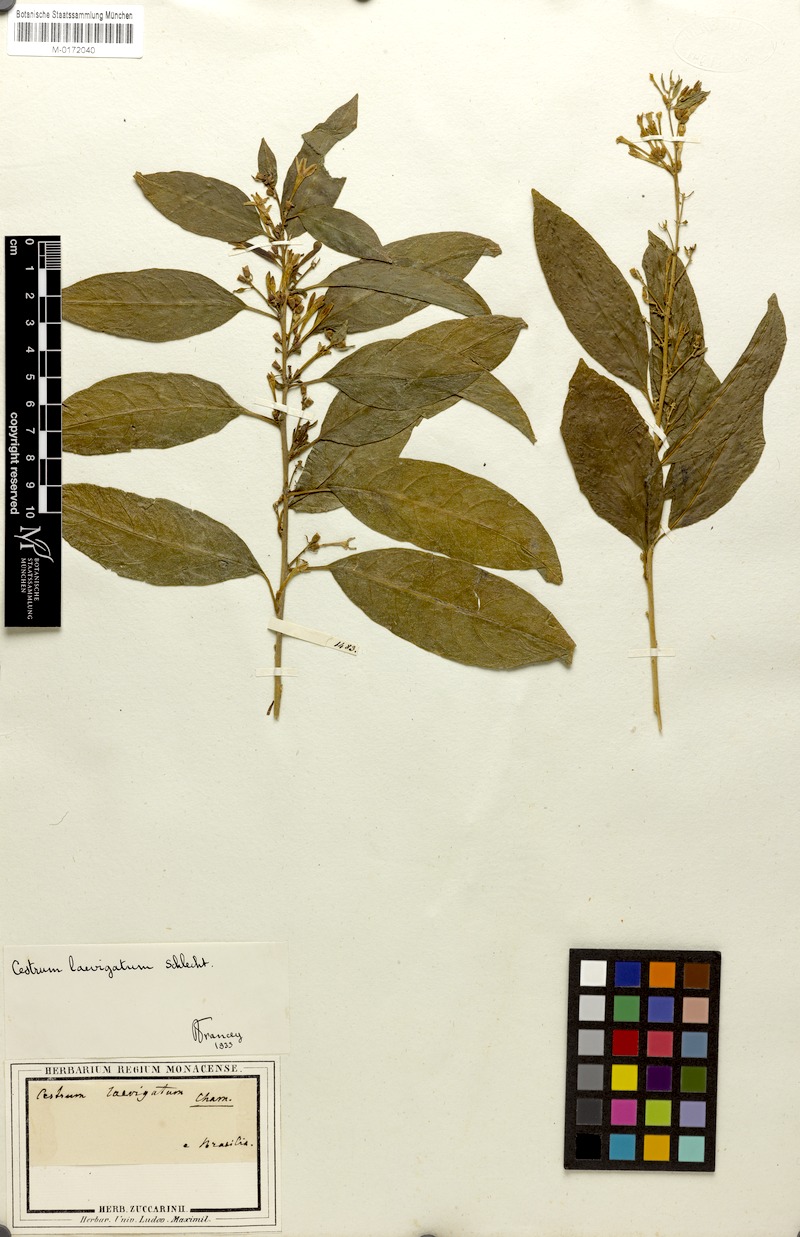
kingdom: Plantae
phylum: Tracheophyta
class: Magnoliopsida
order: Solanales
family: Solanaceae
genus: Cestrum
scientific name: Cestrum laevigatum
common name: Inkberry
